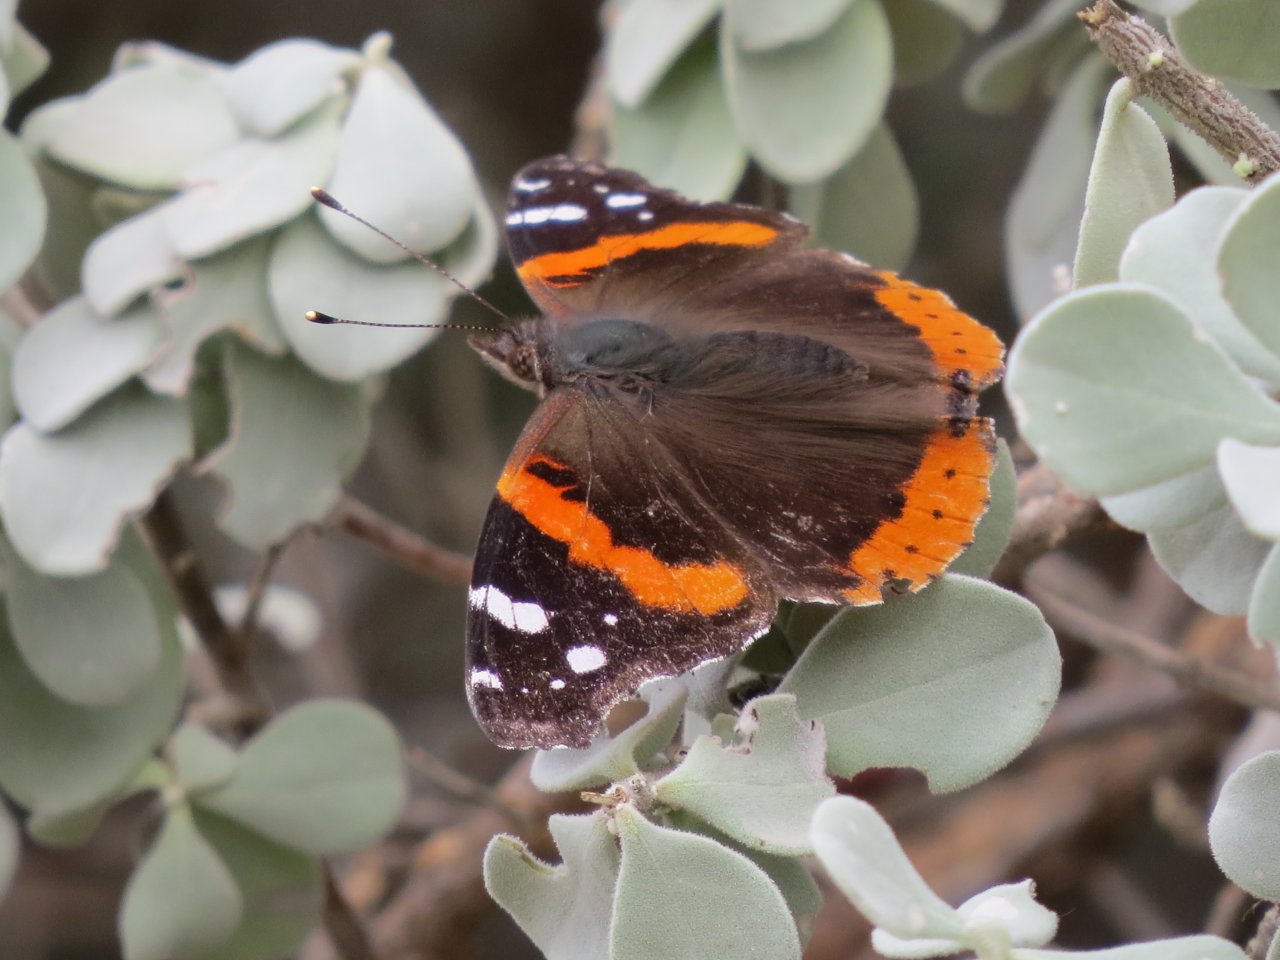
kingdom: Animalia
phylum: Arthropoda
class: Insecta
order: Lepidoptera
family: Nymphalidae
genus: Vanessa
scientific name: Vanessa atalanta
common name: Red Admiral
